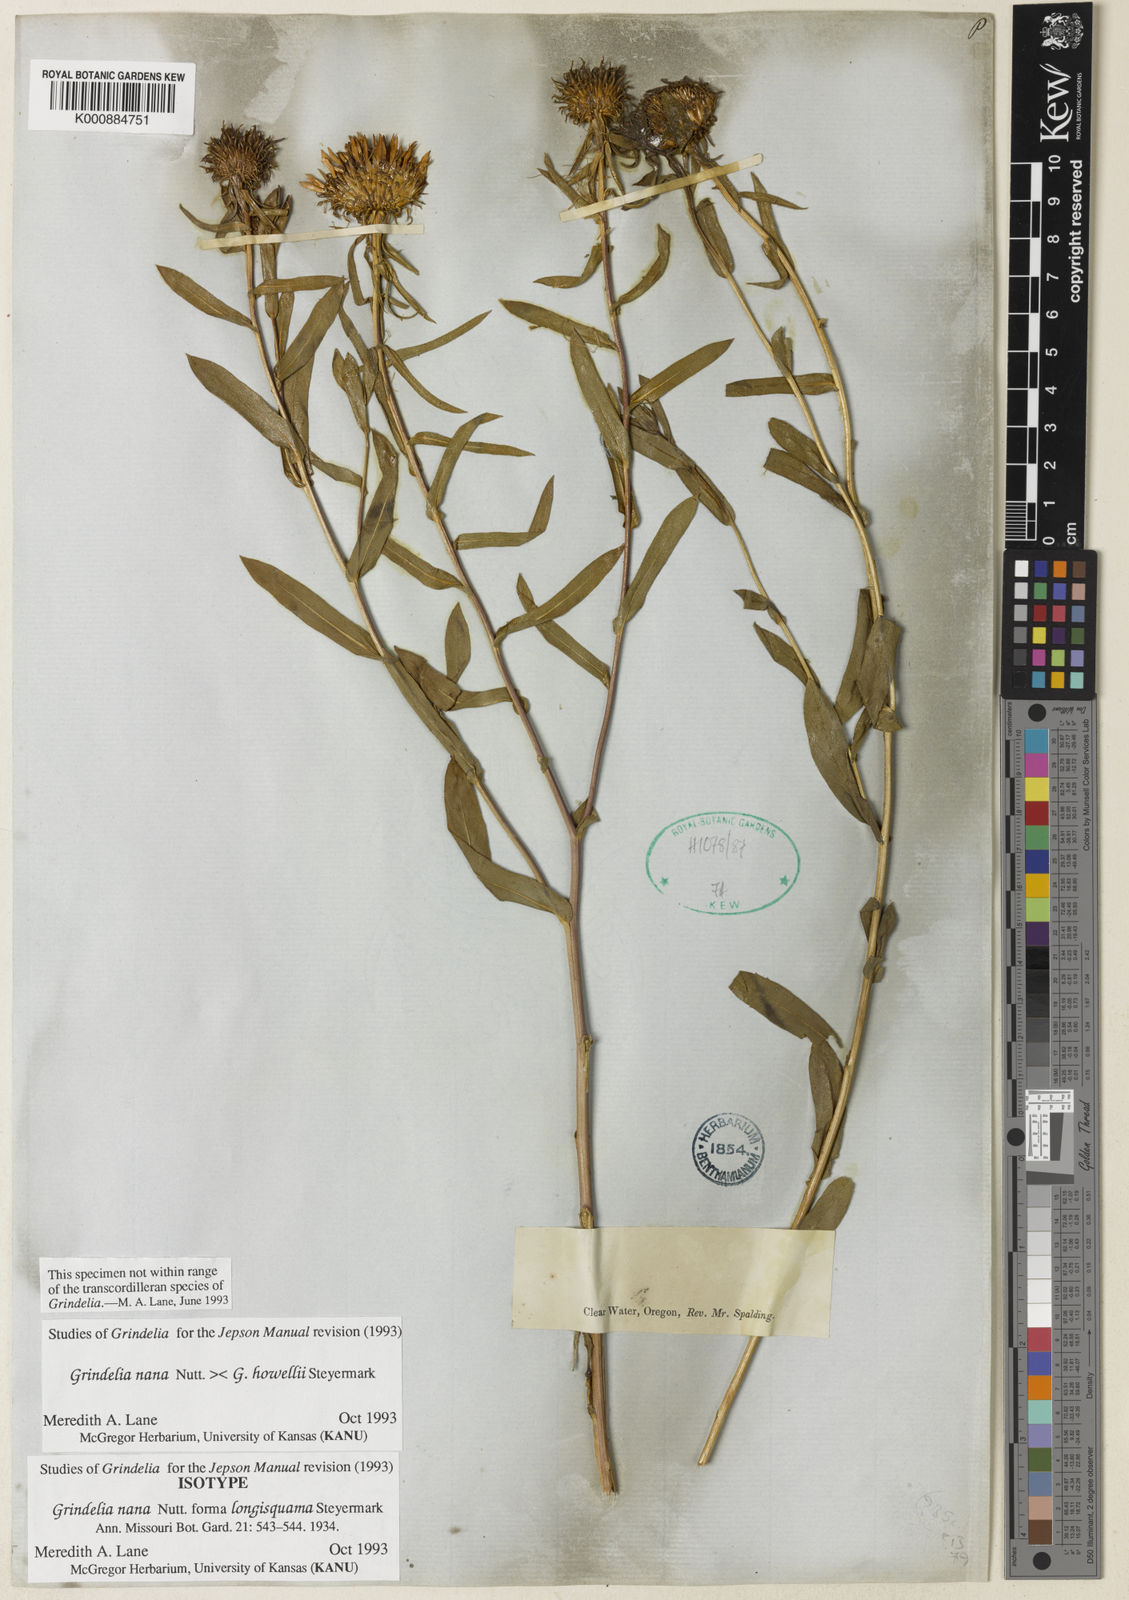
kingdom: Plantae
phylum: Tracheophyta
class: Magnoliopsida
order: Boraginales
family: Boraginaceae
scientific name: Boraginaceae
